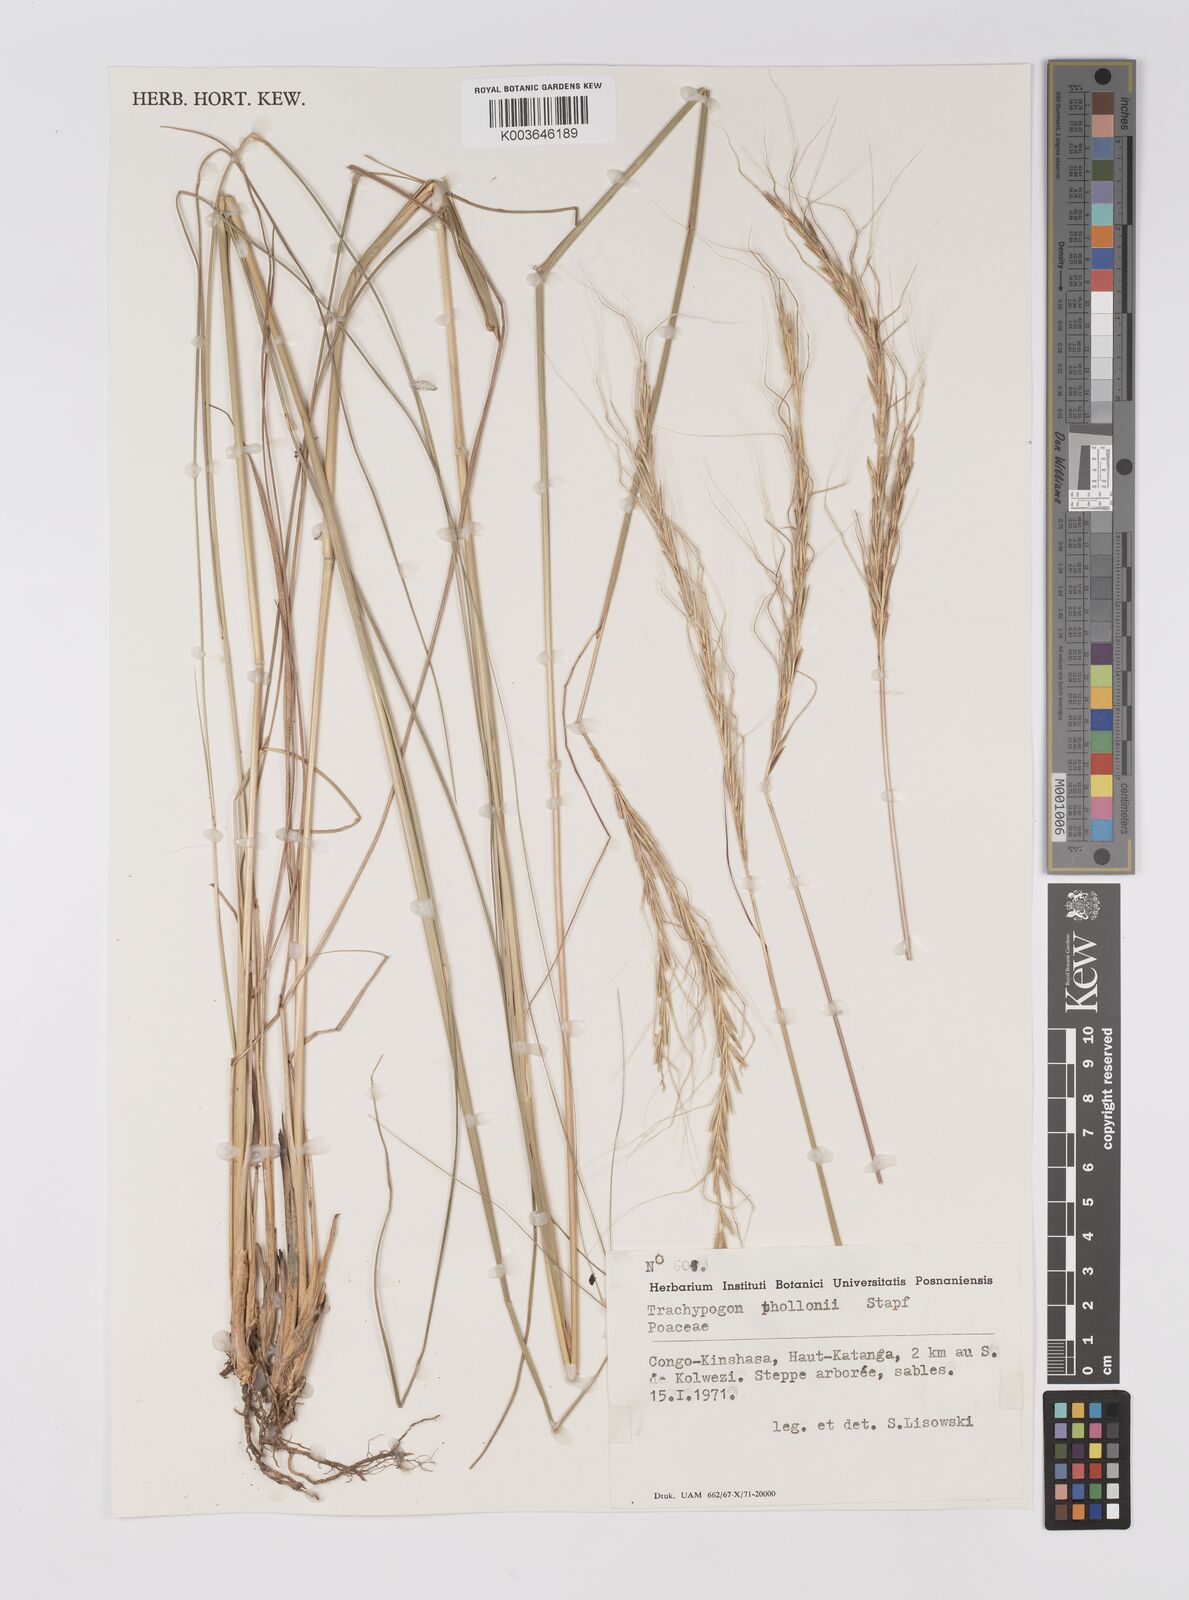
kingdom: Plantae
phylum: Tracheophyta
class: Liliopsida
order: Poales
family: Poaceae
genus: Trachypogon
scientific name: Trachypogon spicatus
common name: Crinkle-awn
